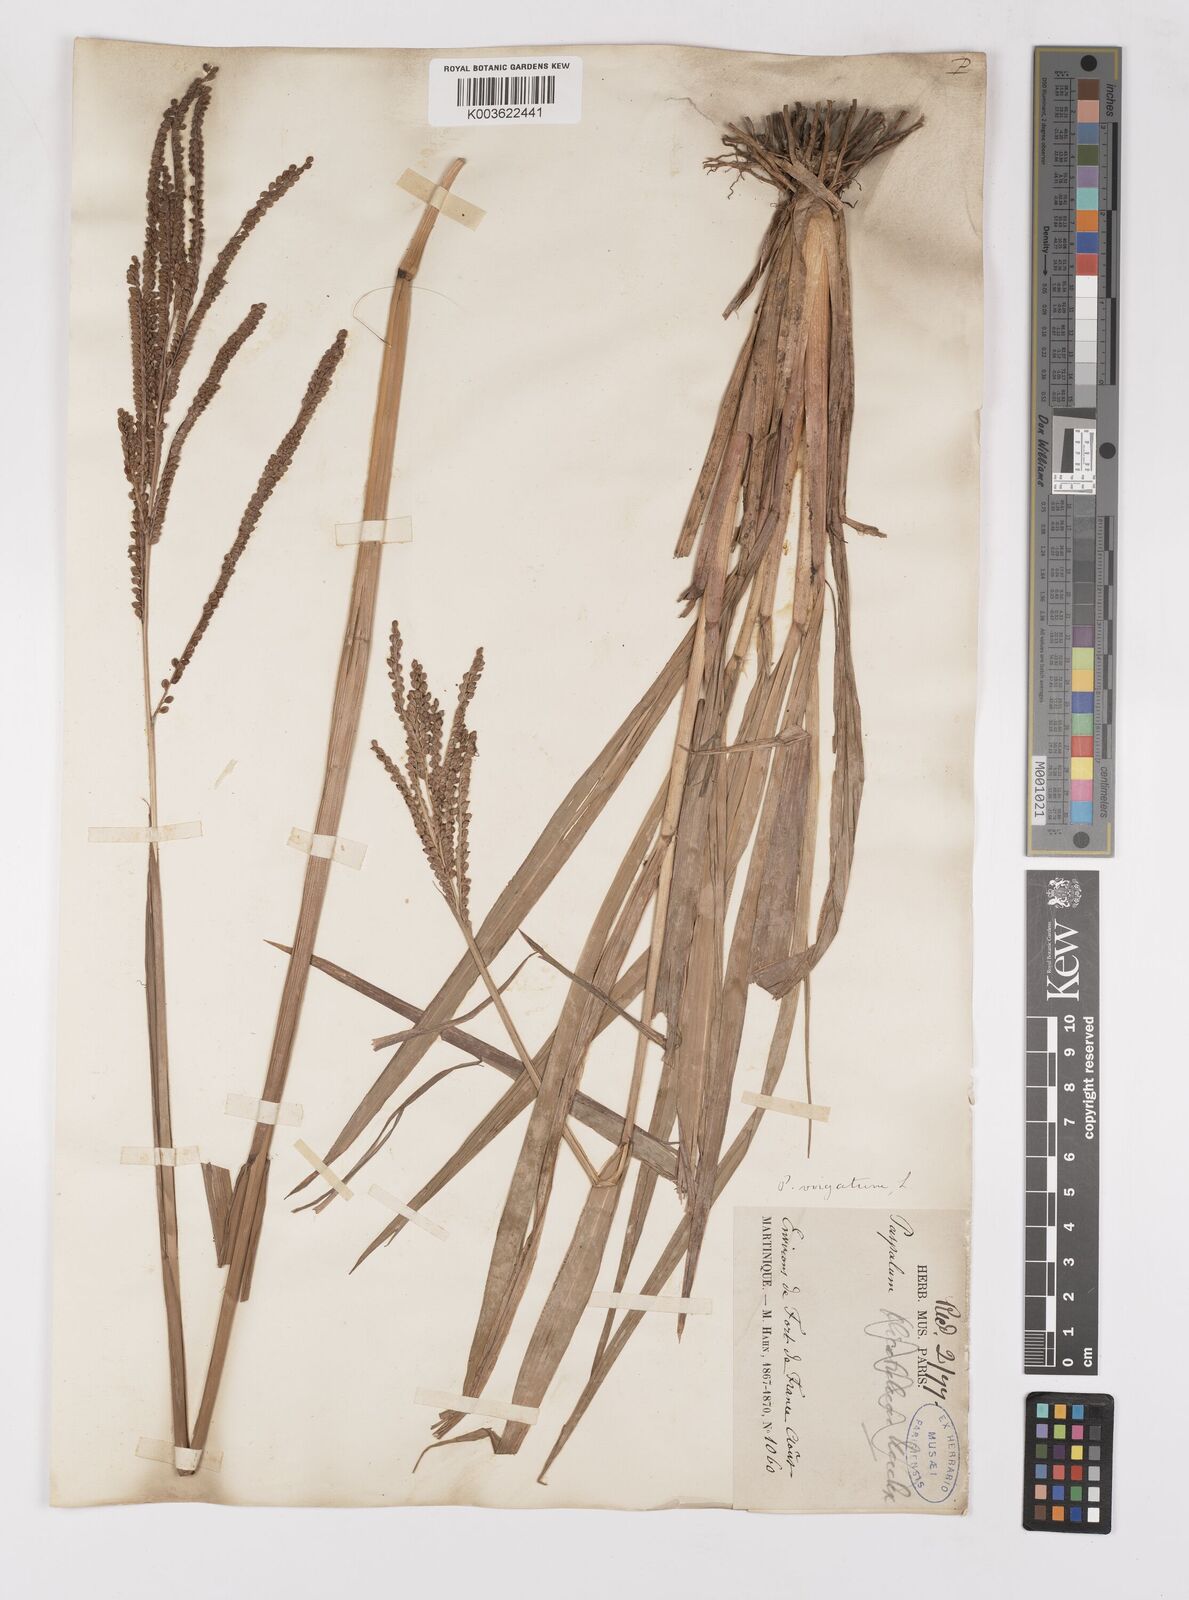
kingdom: Plantae
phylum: Tracheophyta
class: Liliopsida
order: Poales
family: Poaceae
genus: Paspalum
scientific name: Paspalum virgatum
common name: Talquezal
